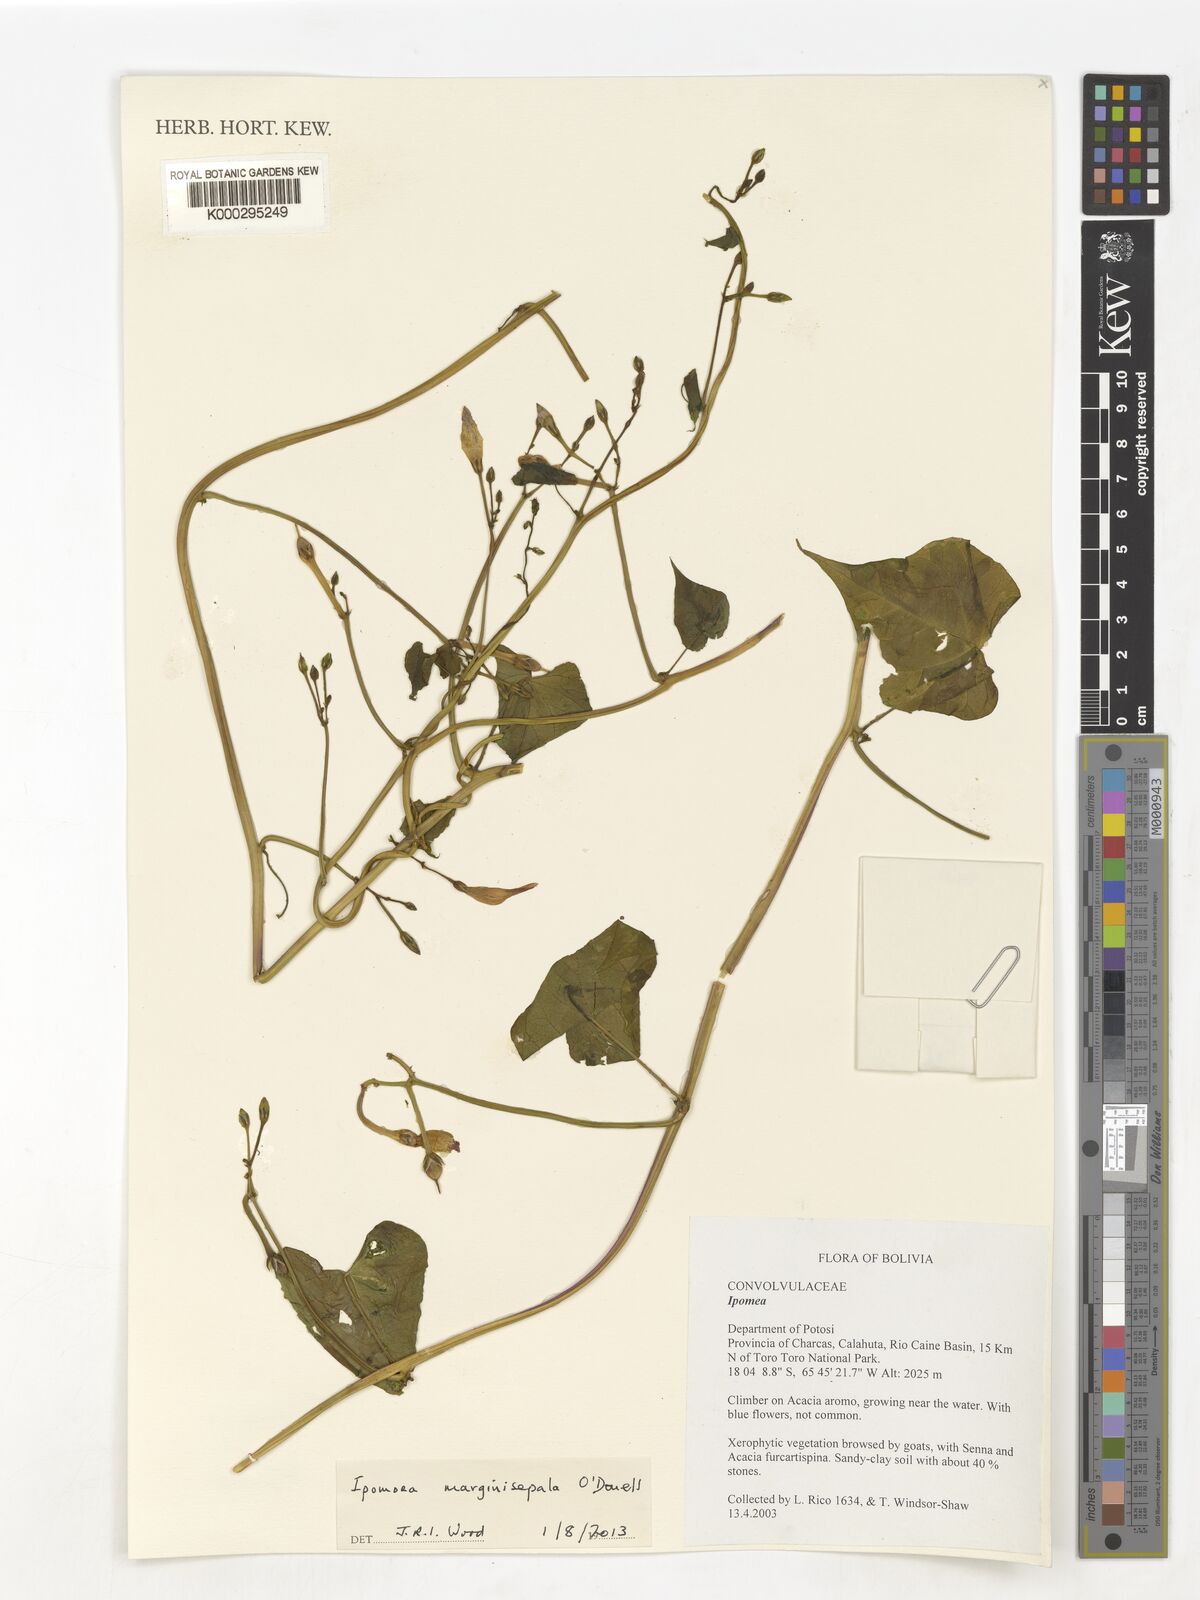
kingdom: Plantae
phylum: Tracheophyta
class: Magnoliopsida
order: Solanales
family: Convolvulaceae
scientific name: Convolvulaceae
